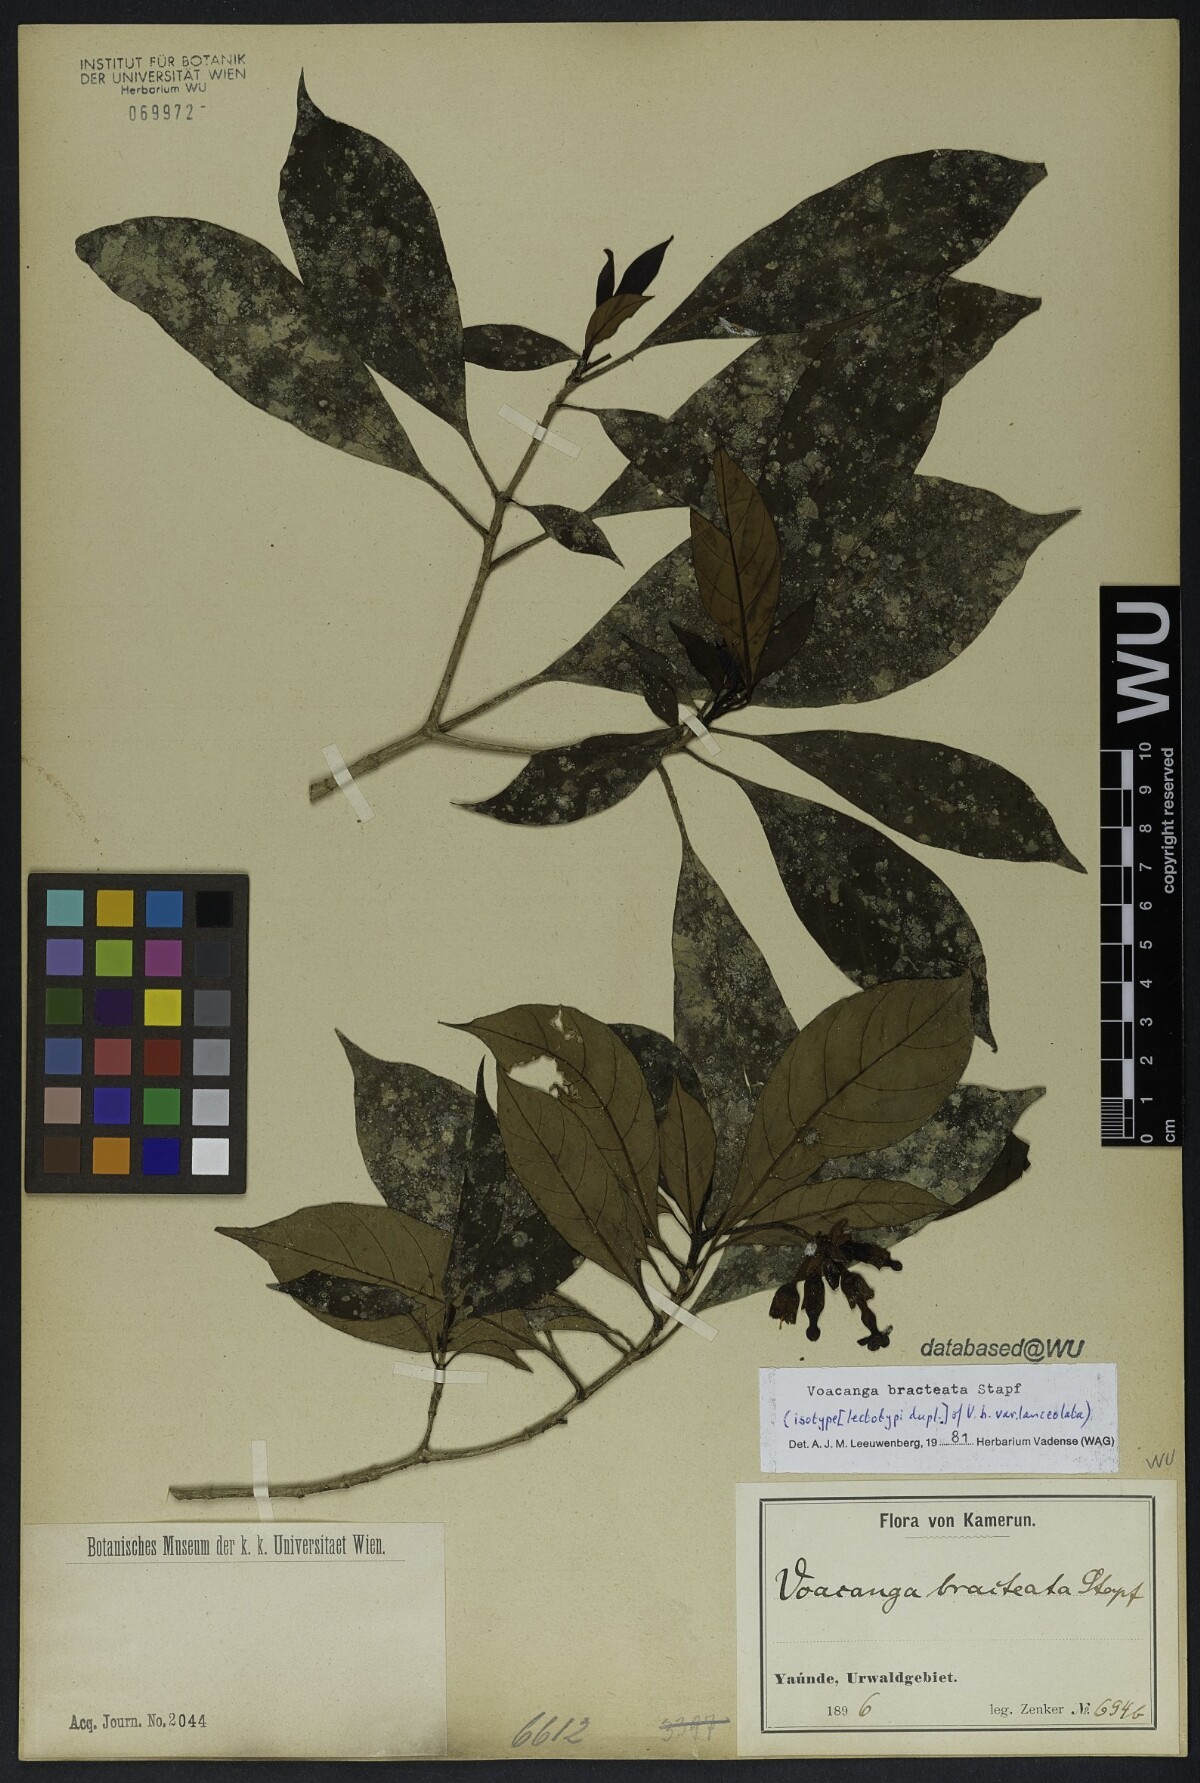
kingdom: Plantae
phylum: Tracheophyta
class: Magnoliopsida
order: Gentianales
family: Apocynaceae
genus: Voacanga
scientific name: Voacanga lanceolata
